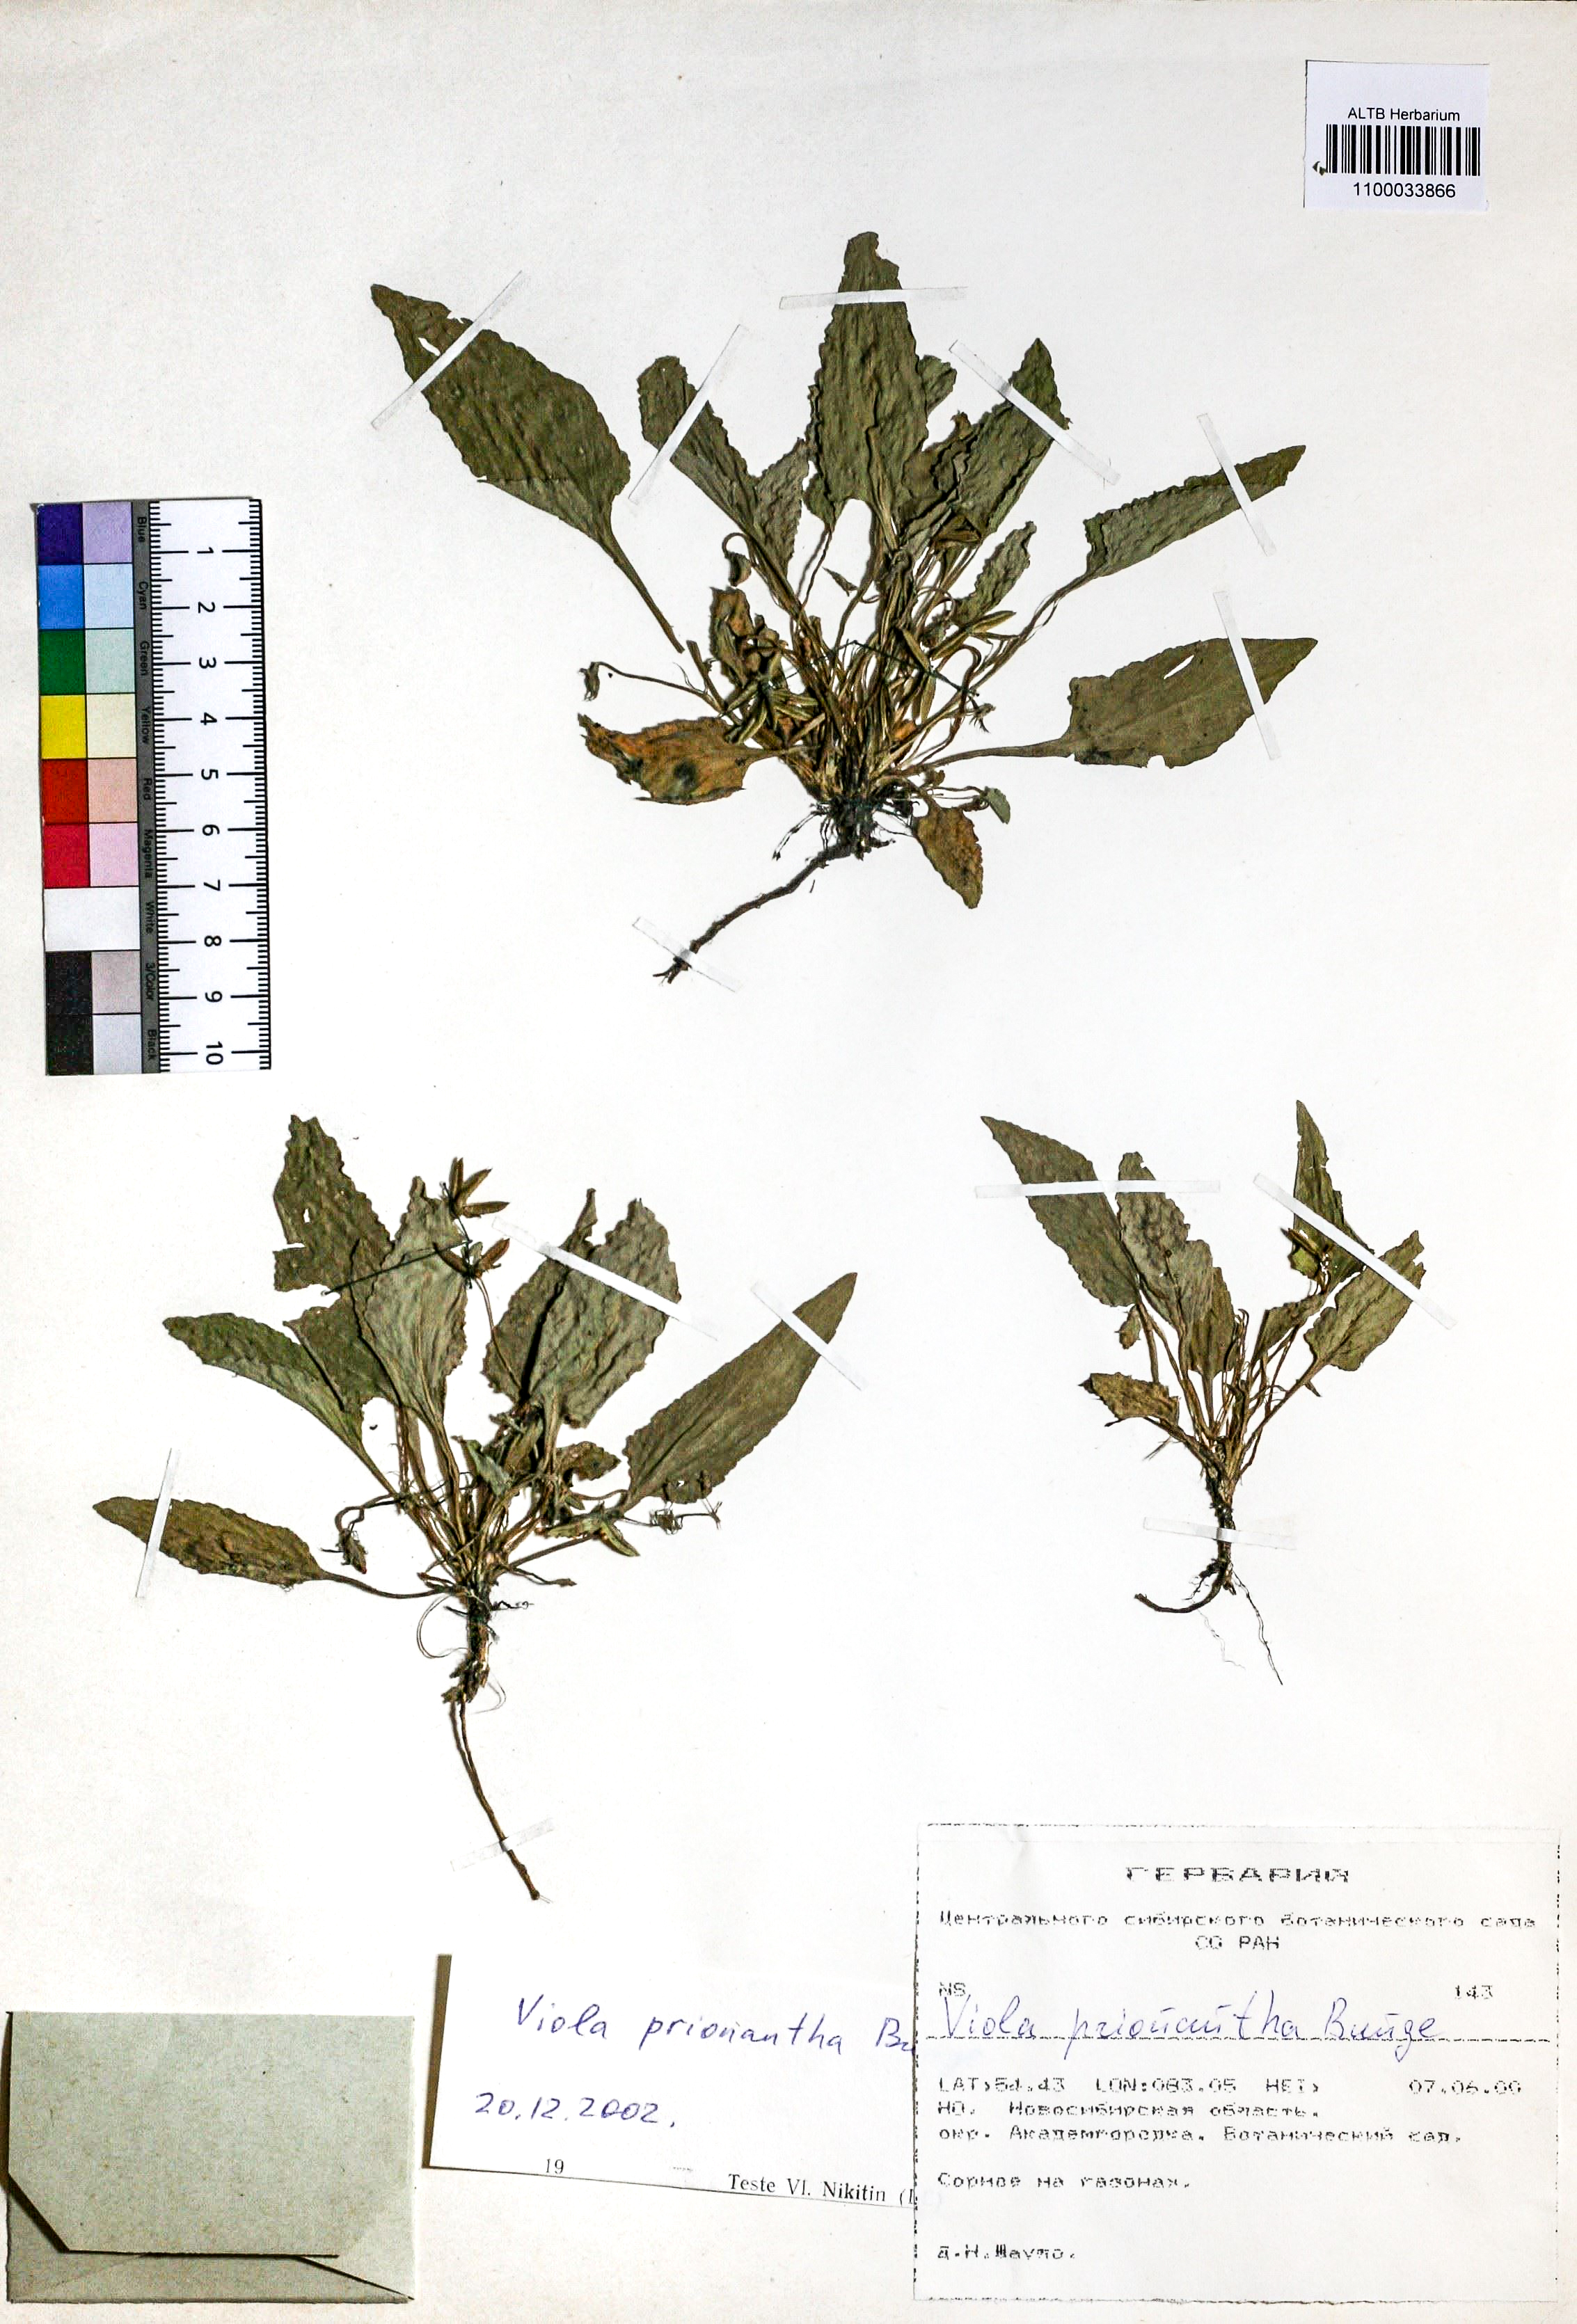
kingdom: Plantae
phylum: Tracheophyta
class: Magnoliopsida
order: Malpighiales
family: Violaceae
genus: Viola
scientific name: Viola prionantha
